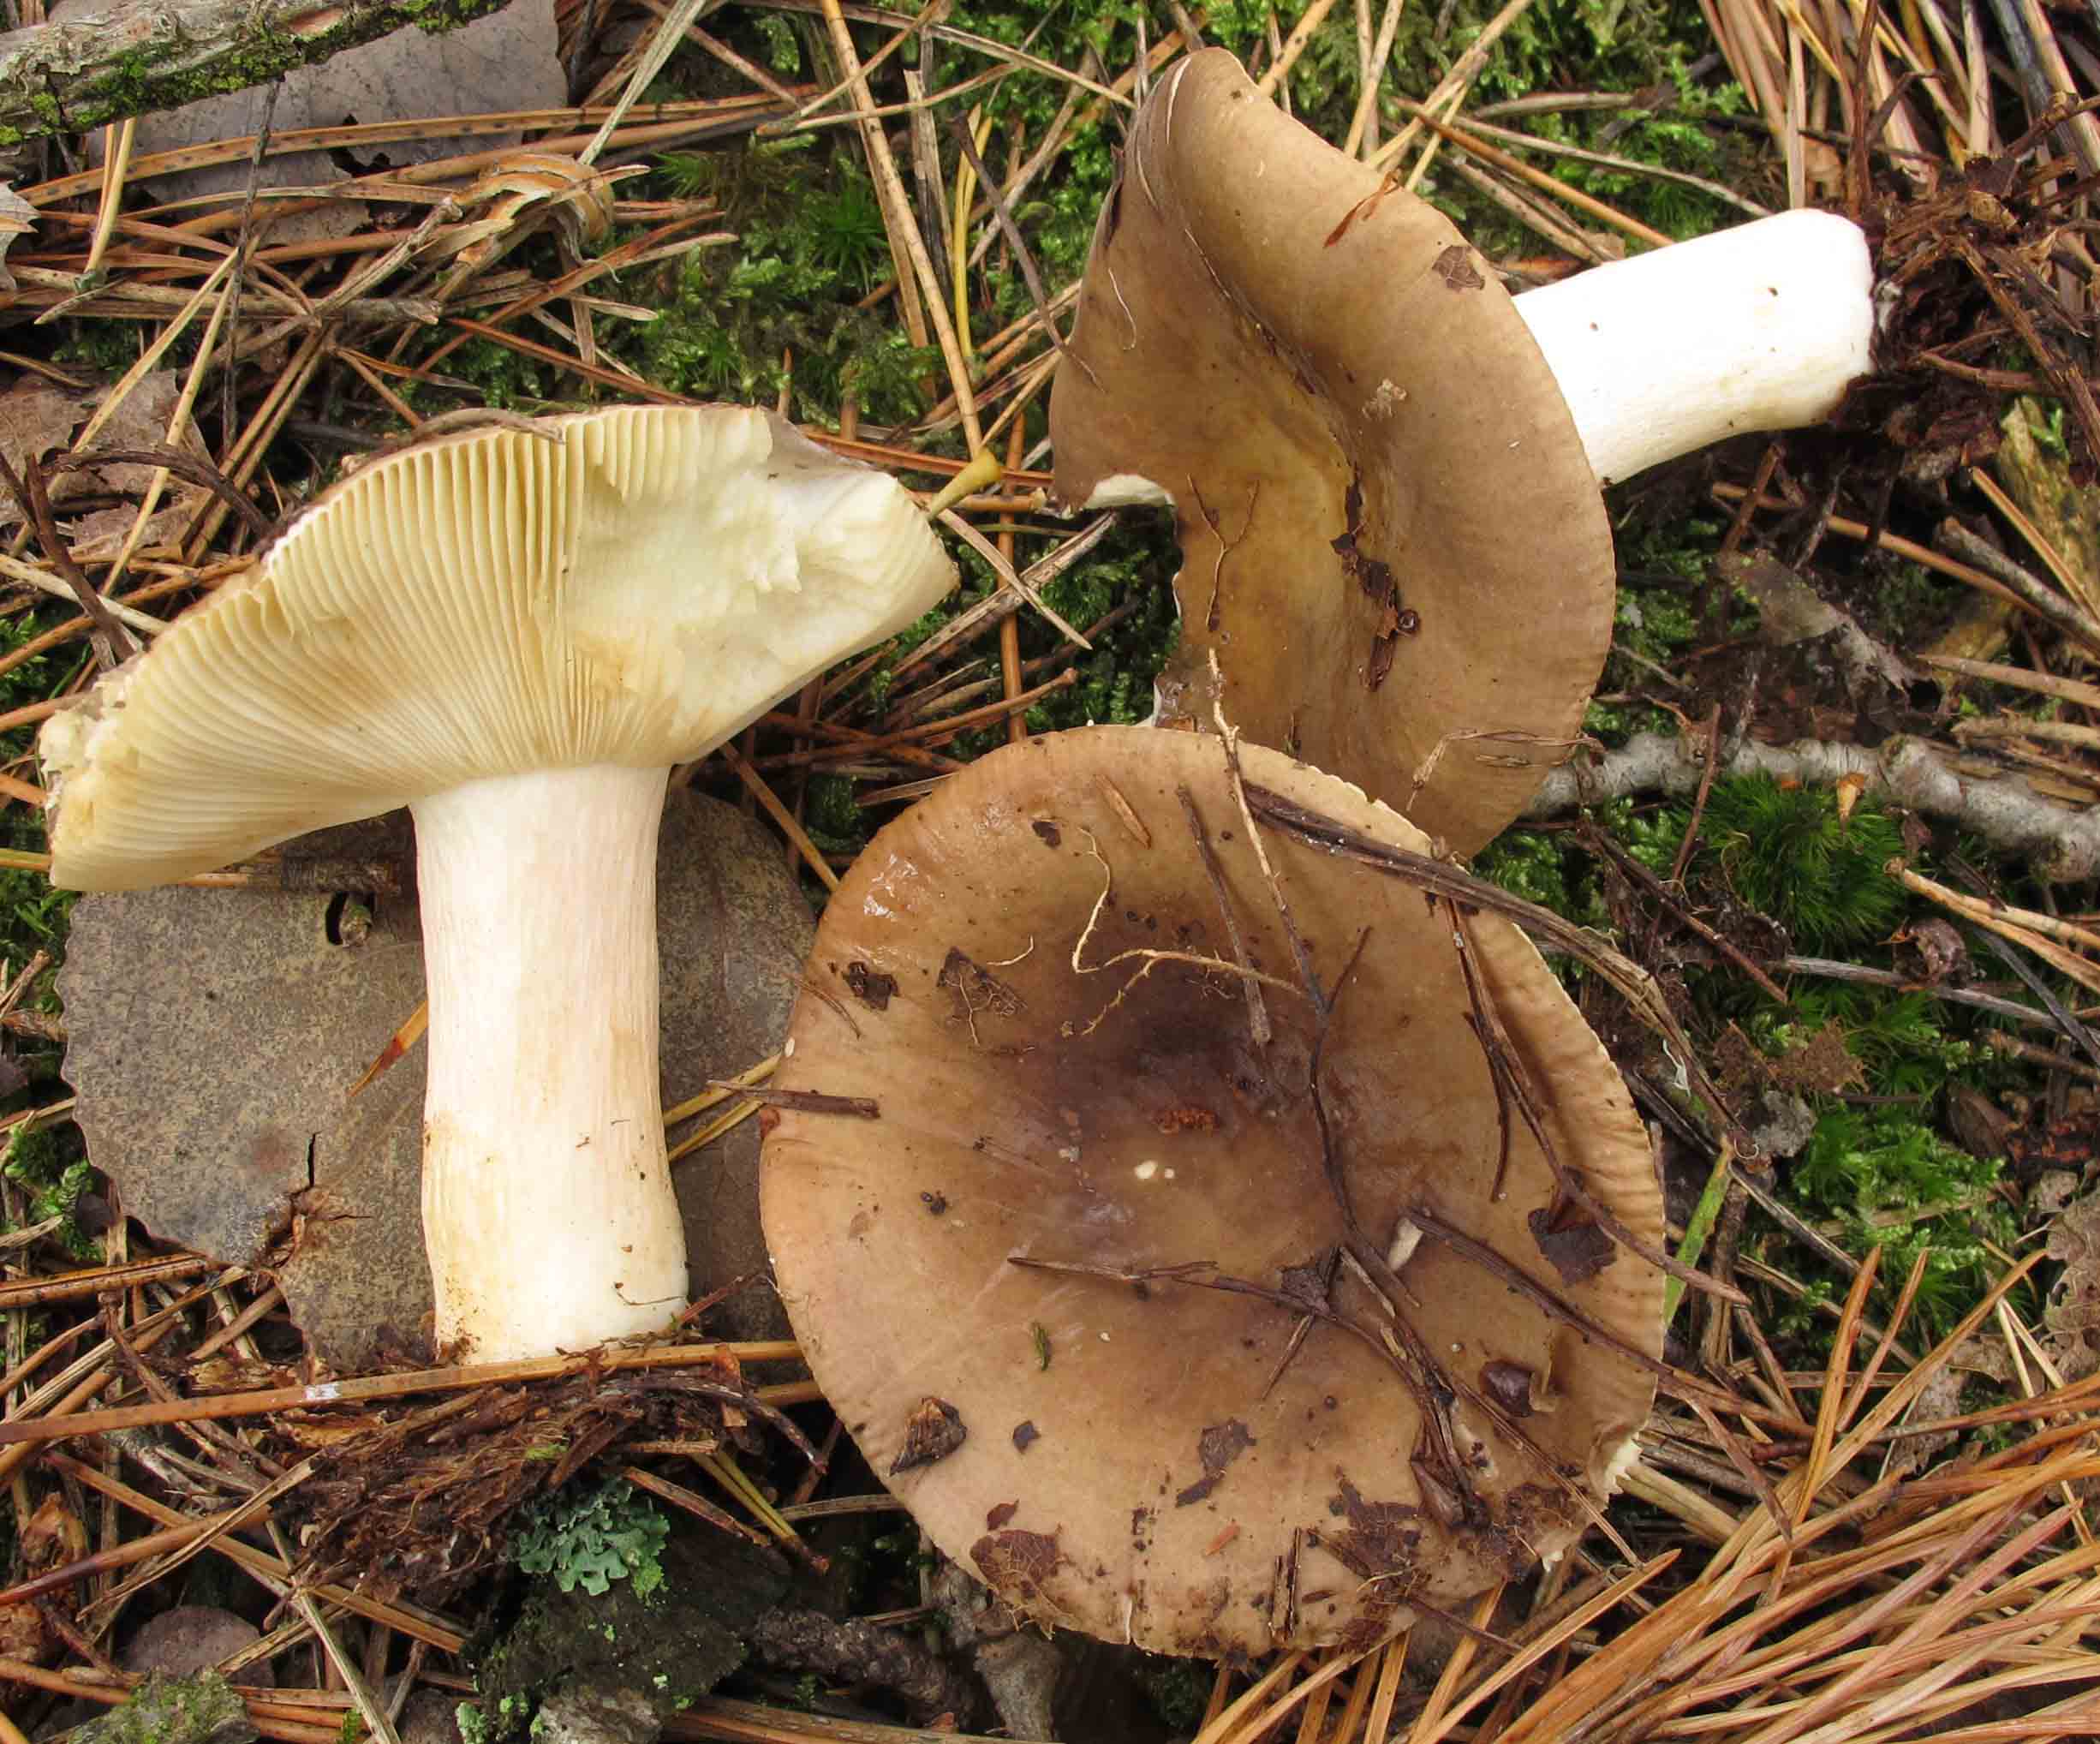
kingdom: Fungi
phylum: Basidiomycota
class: Agaricomycetes
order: Russulales
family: Russulaceae
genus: Russula
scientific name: Russula clavipes
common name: olivengrøn skørhat
